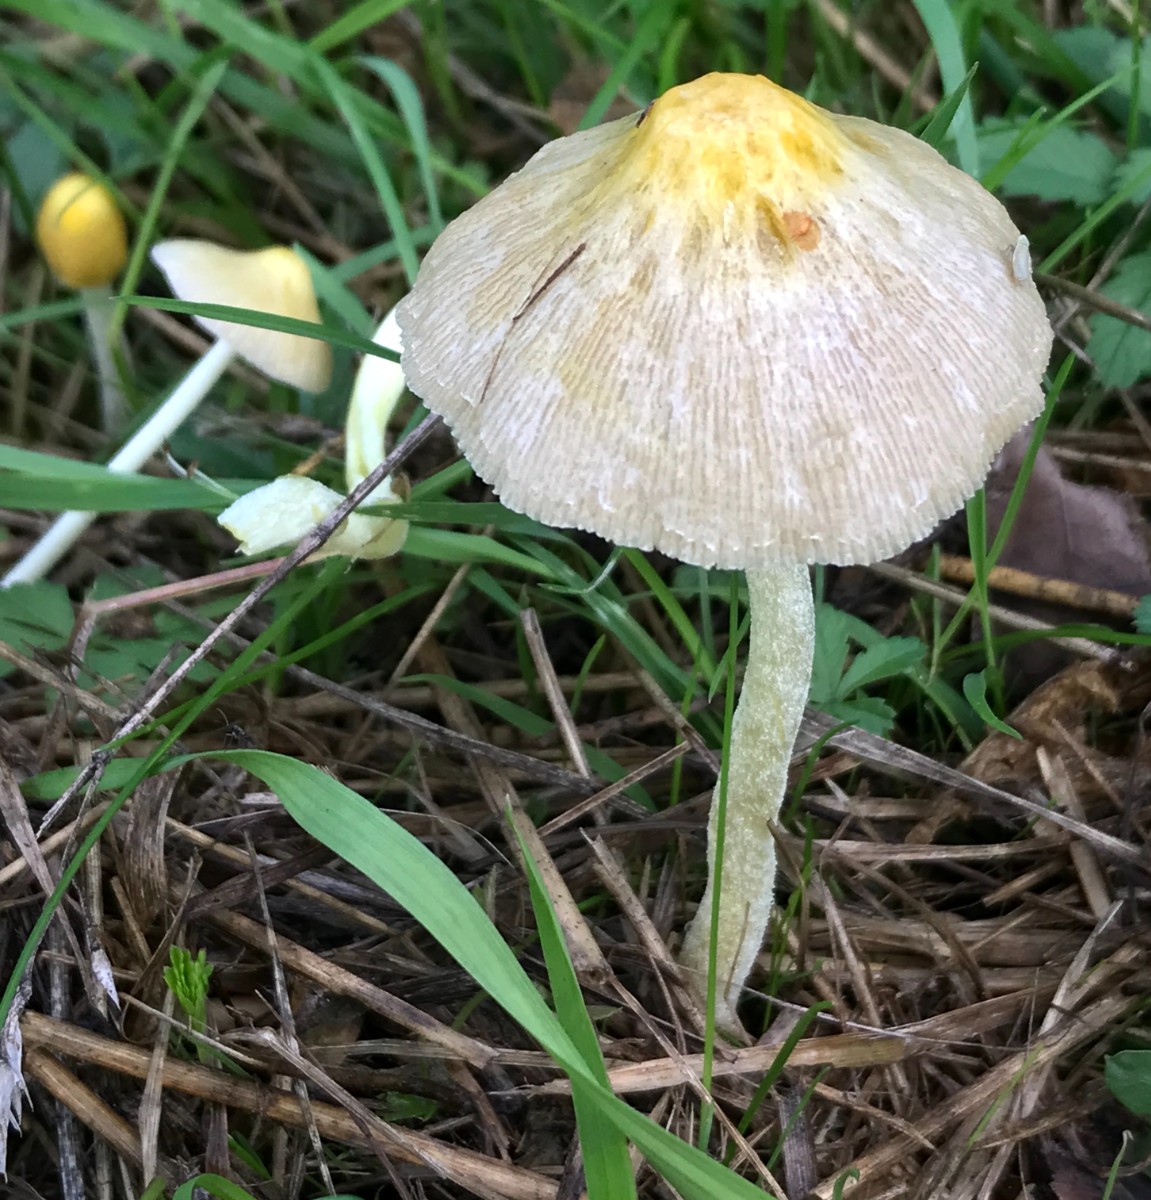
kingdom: Fungi
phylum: Basidiomycota
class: Agaricomycetes
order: Agaricales
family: Bolbitiaceae
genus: Bolbitius
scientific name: Bolbitius titubans
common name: almindelig gulhat
